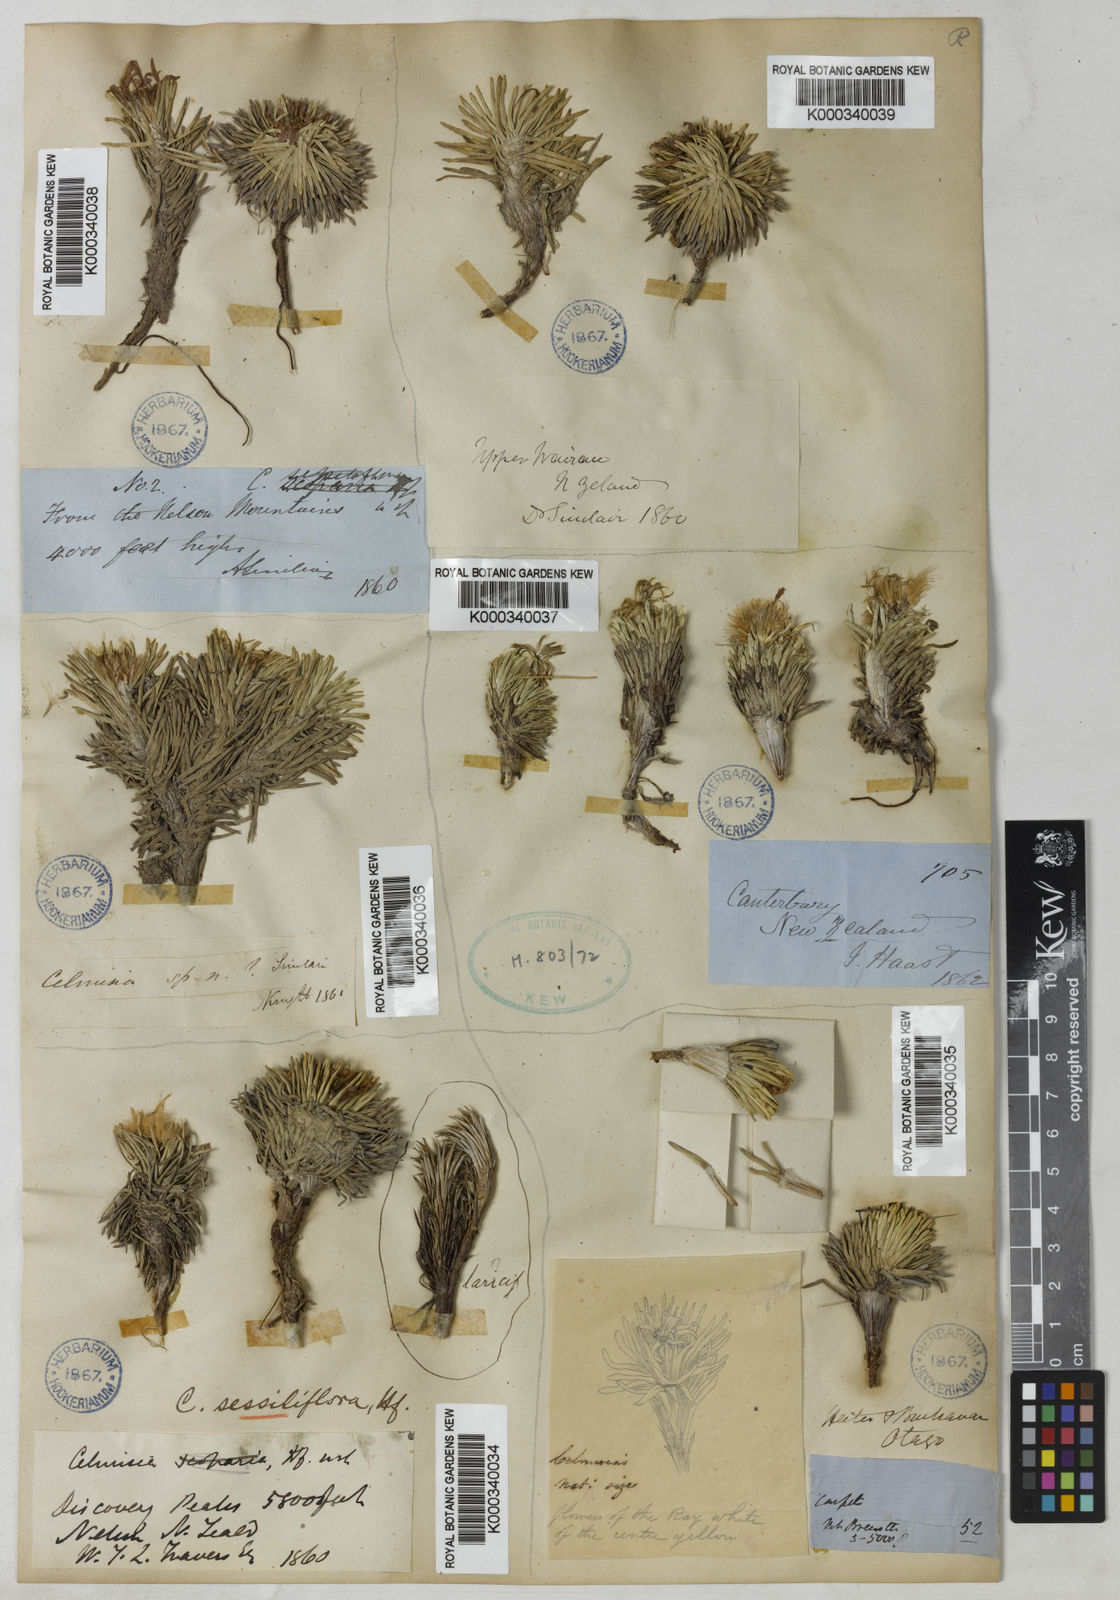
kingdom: Plantae
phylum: Tracheophyta
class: Magnoliopsida
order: Asterales
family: Asteraceae
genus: Celmisia
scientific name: Celmisia sessiliflora
